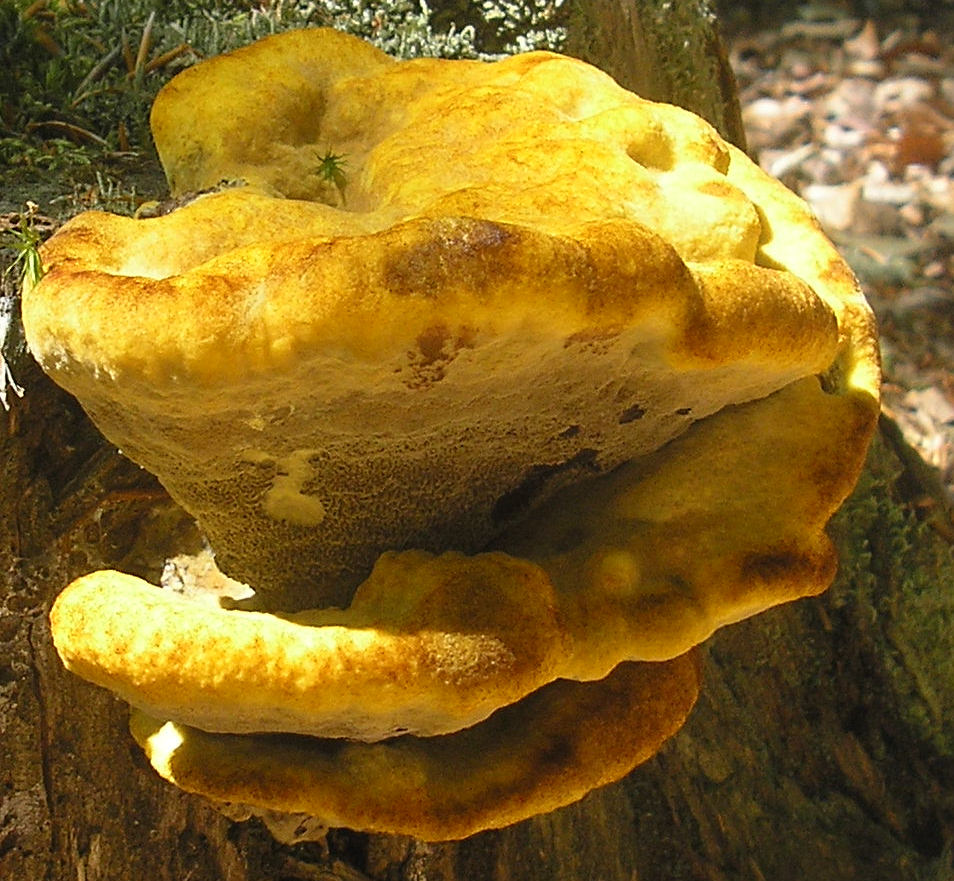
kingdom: Fungi
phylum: Basidiomycota
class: Agaricomycetes
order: Polyporales
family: Laetiporaceae
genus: Phaeolus
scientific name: Phaeolus schweinitzii
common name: brunporesvamp
